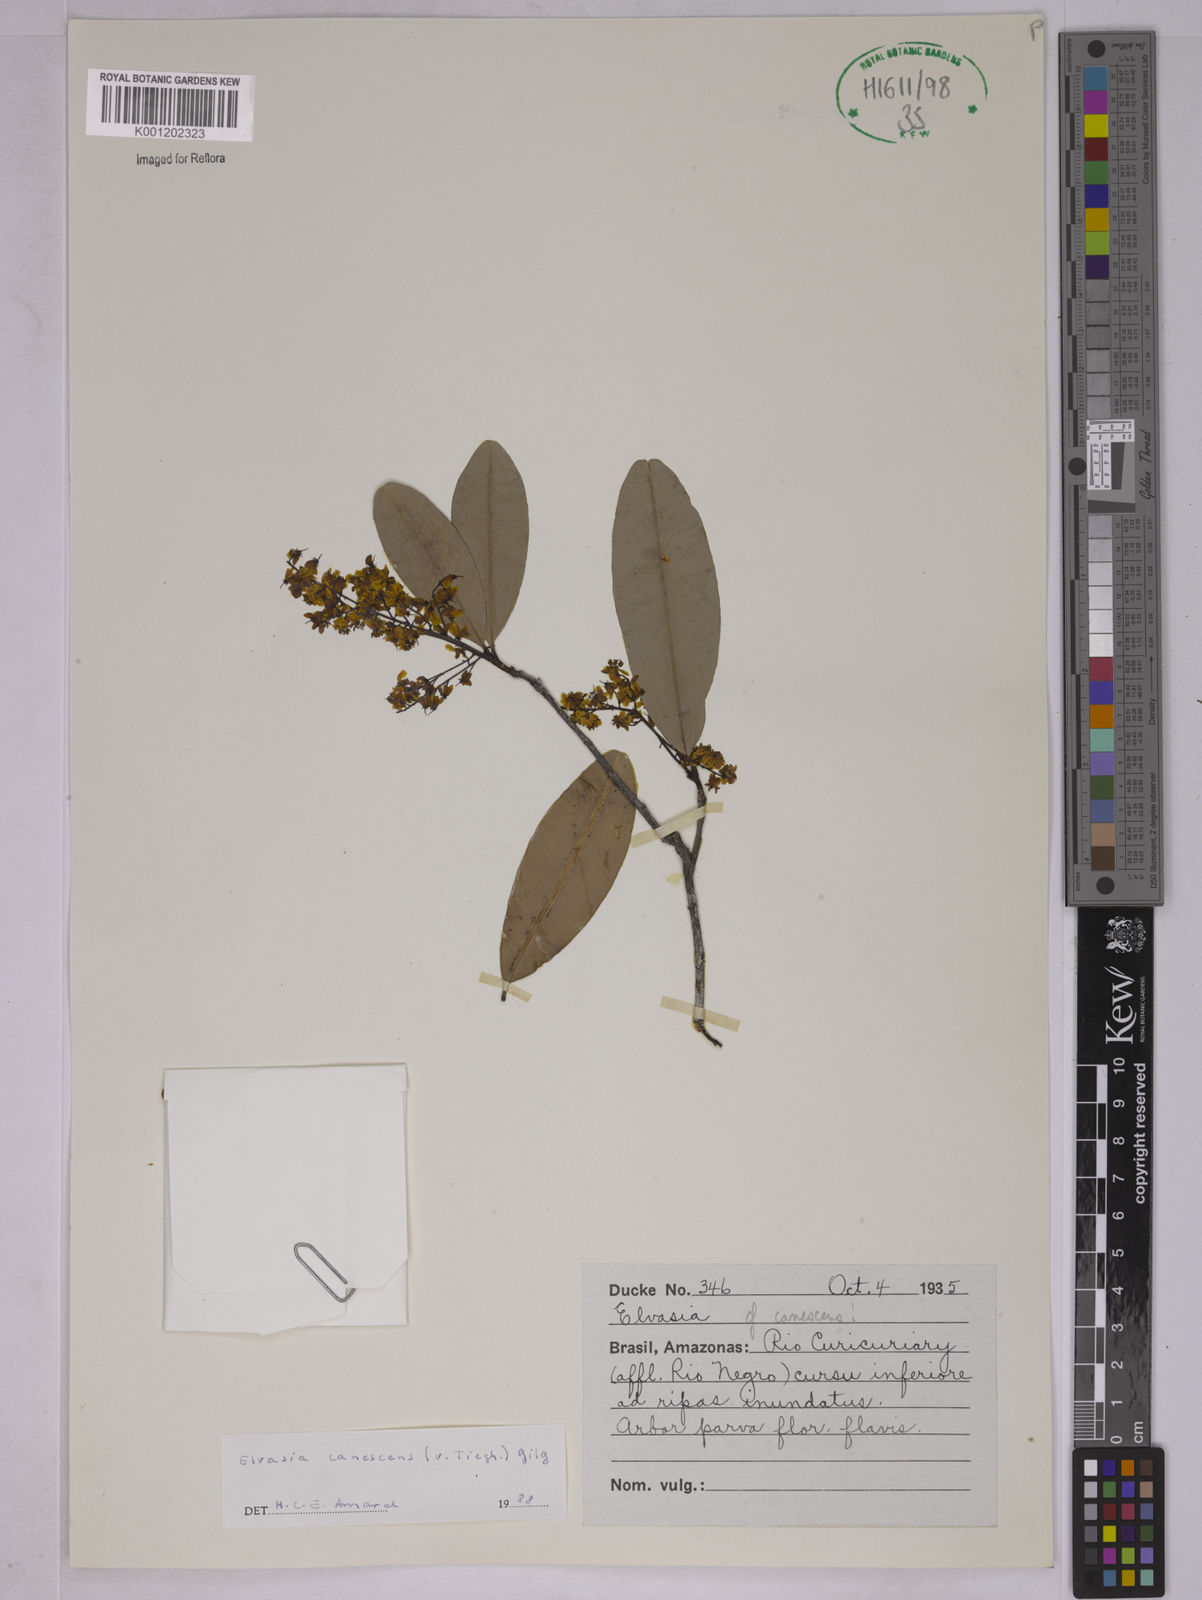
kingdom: Plantae
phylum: Tracheophyta
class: Magnoliopsida
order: Malpighiales
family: Ochnaceae
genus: Elvasia
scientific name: Elvasia canescens
